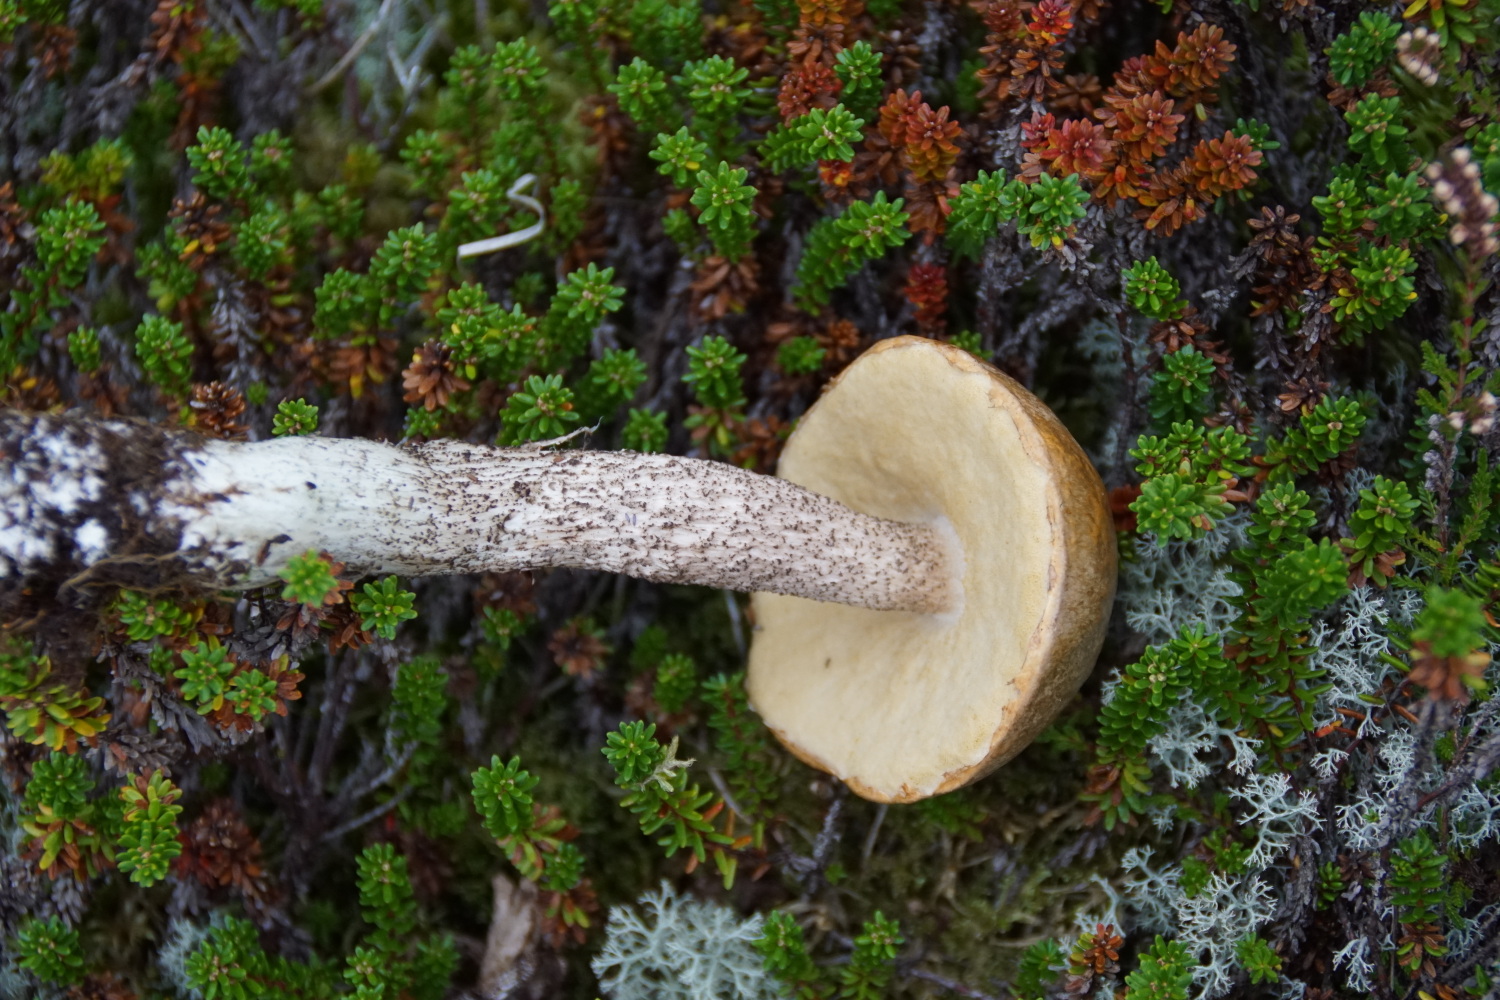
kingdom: Fungi
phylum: Basidiomycota
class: Agaricomycetes
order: Boletales
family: Boletaceae
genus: Leccinum
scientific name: Leccinum scabrum
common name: brun skælrørhat
